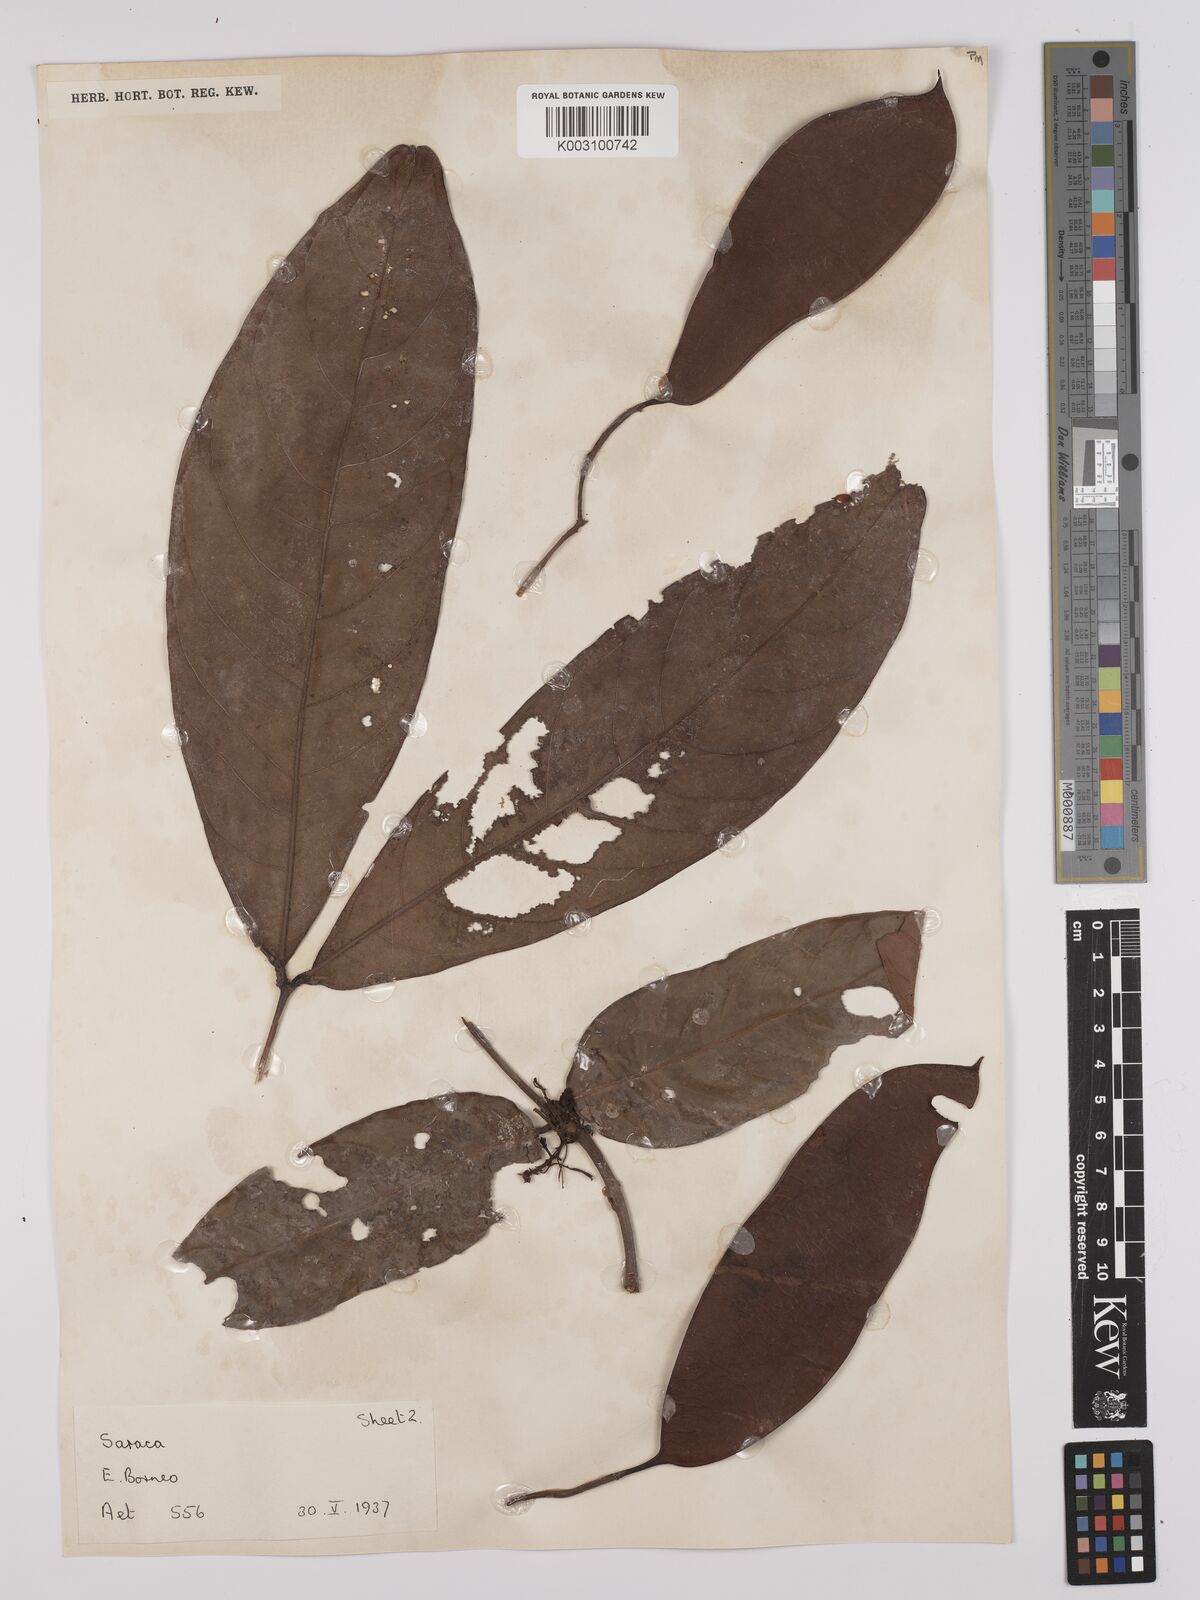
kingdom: Plantae
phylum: Tracheophyta
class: Magnoliopsida
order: Fabales
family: Fabaceae
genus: Saraca
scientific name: Saraca declinata
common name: Red saraca
